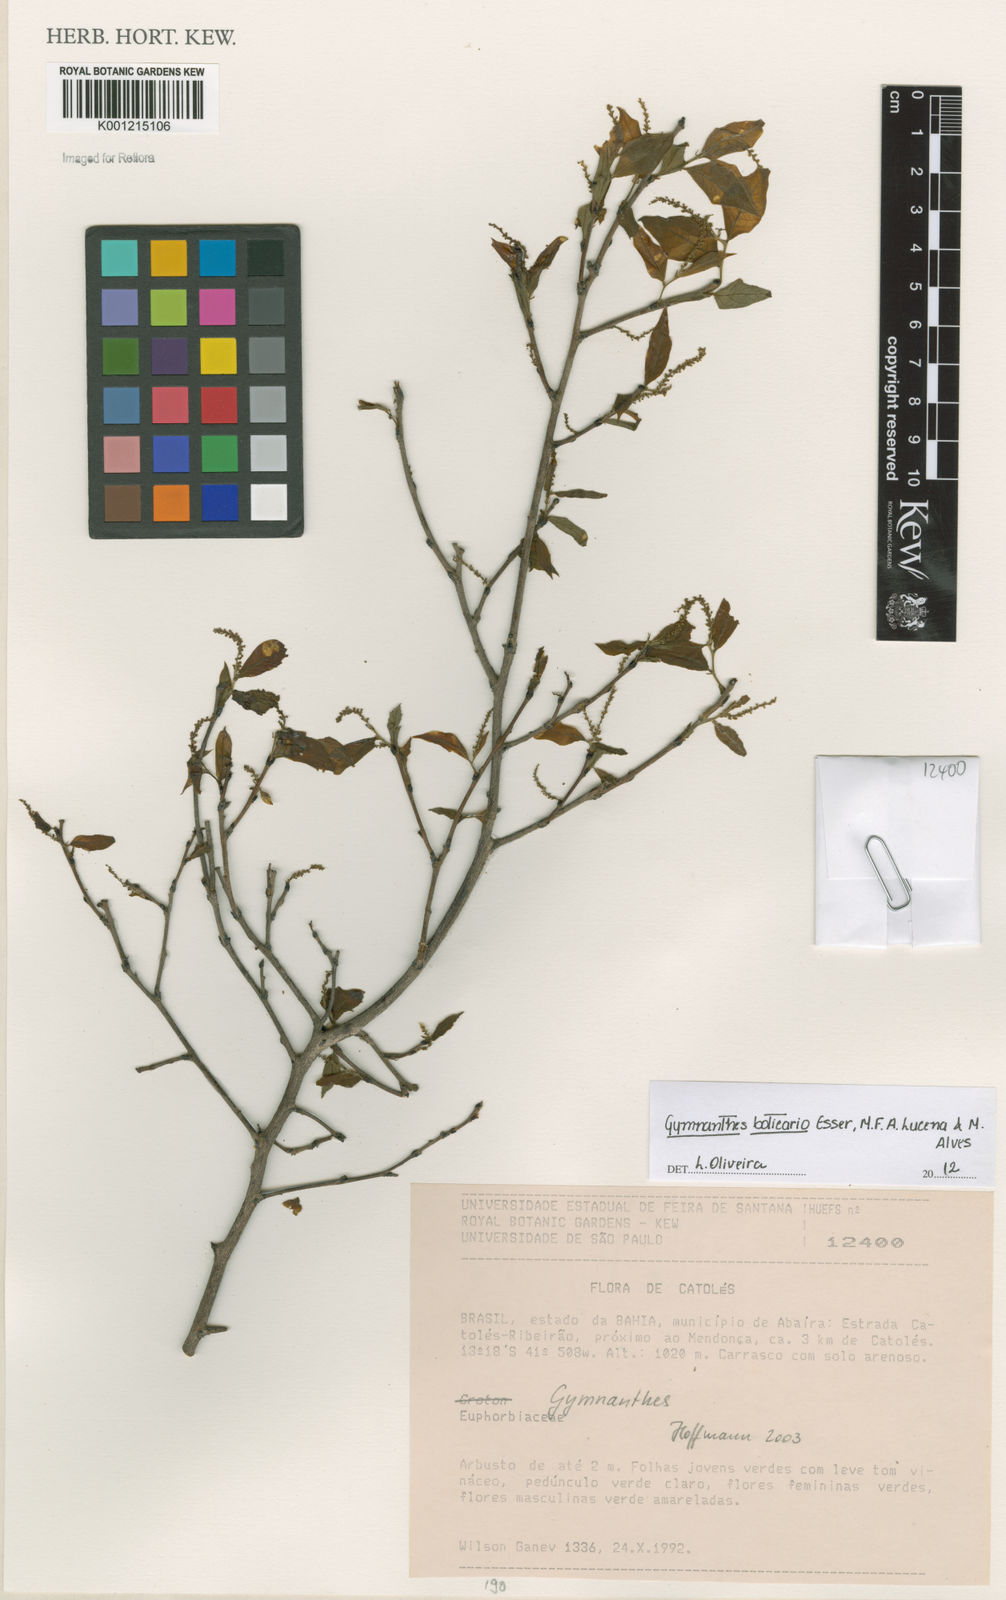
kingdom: Plantae
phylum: Tracheophyta
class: Magnoliopsida
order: Malpighiales
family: Euphorbiaceae
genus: Gymnanthes
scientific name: Gymnanthes boticario
